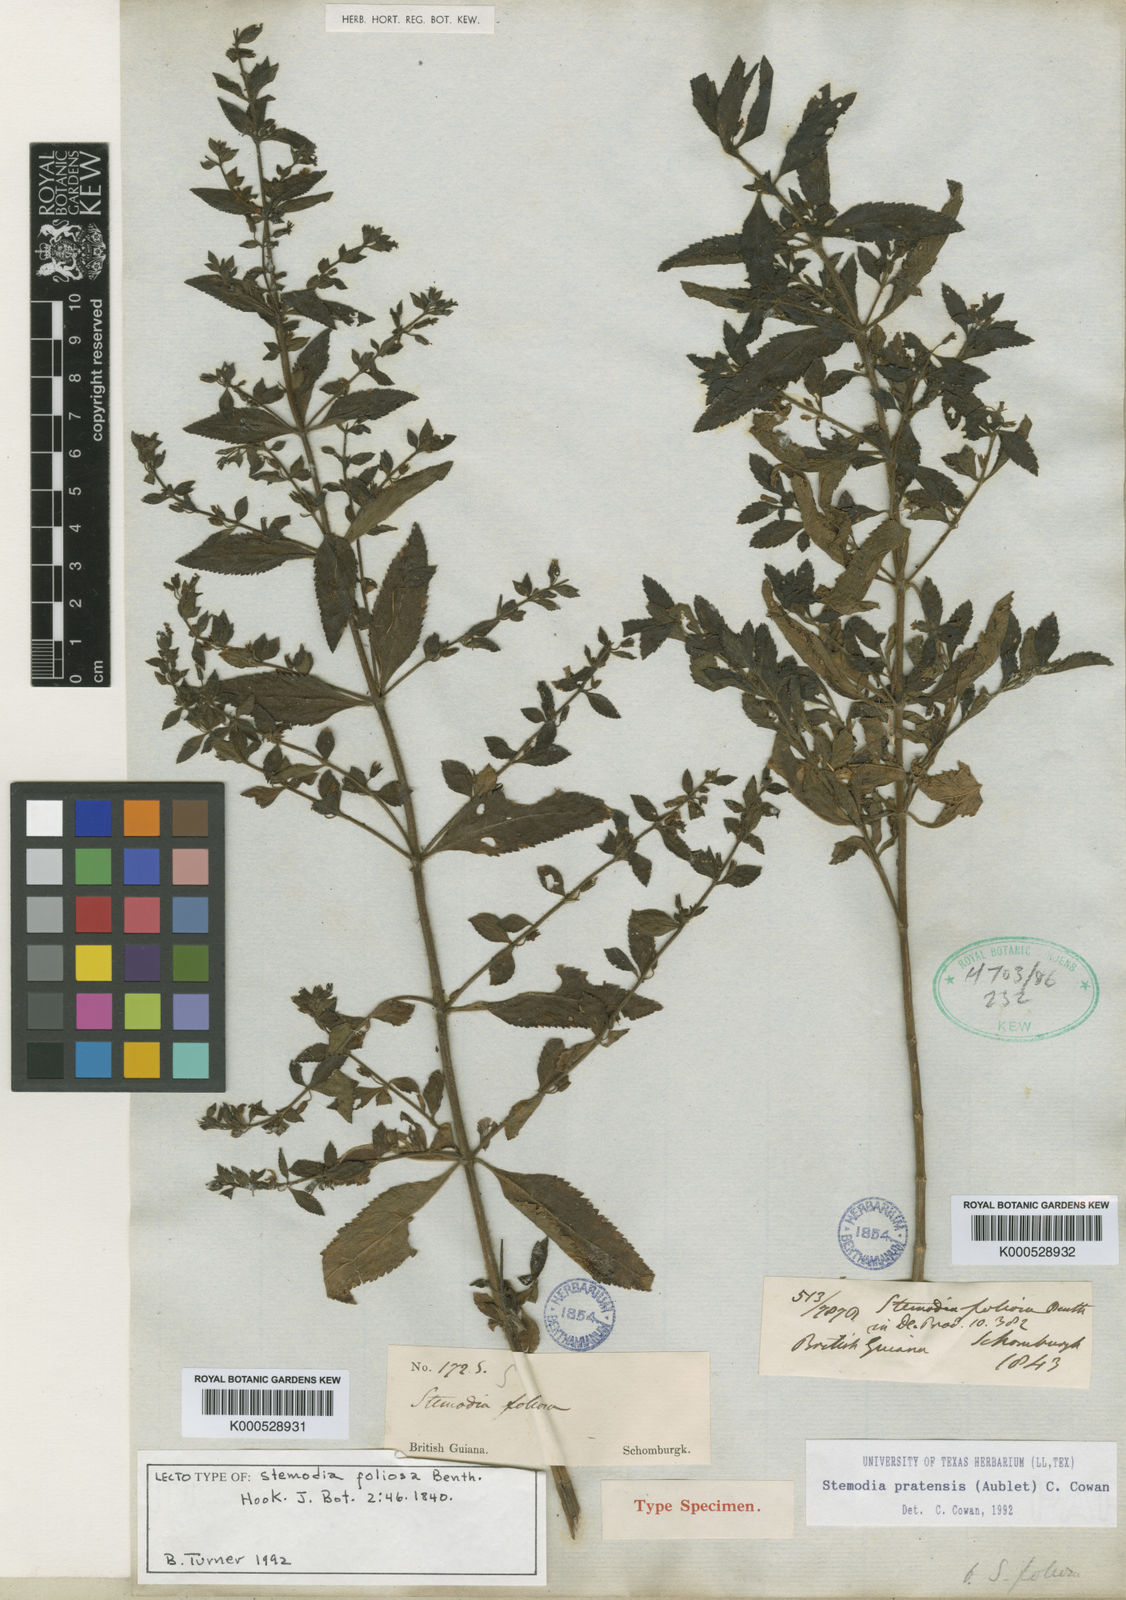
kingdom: Plantae
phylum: Tracheophyta
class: Magnoliopsida
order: Lamiales
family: Plantaginaceae
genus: Stemodia
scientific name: Stemodia foliosa
